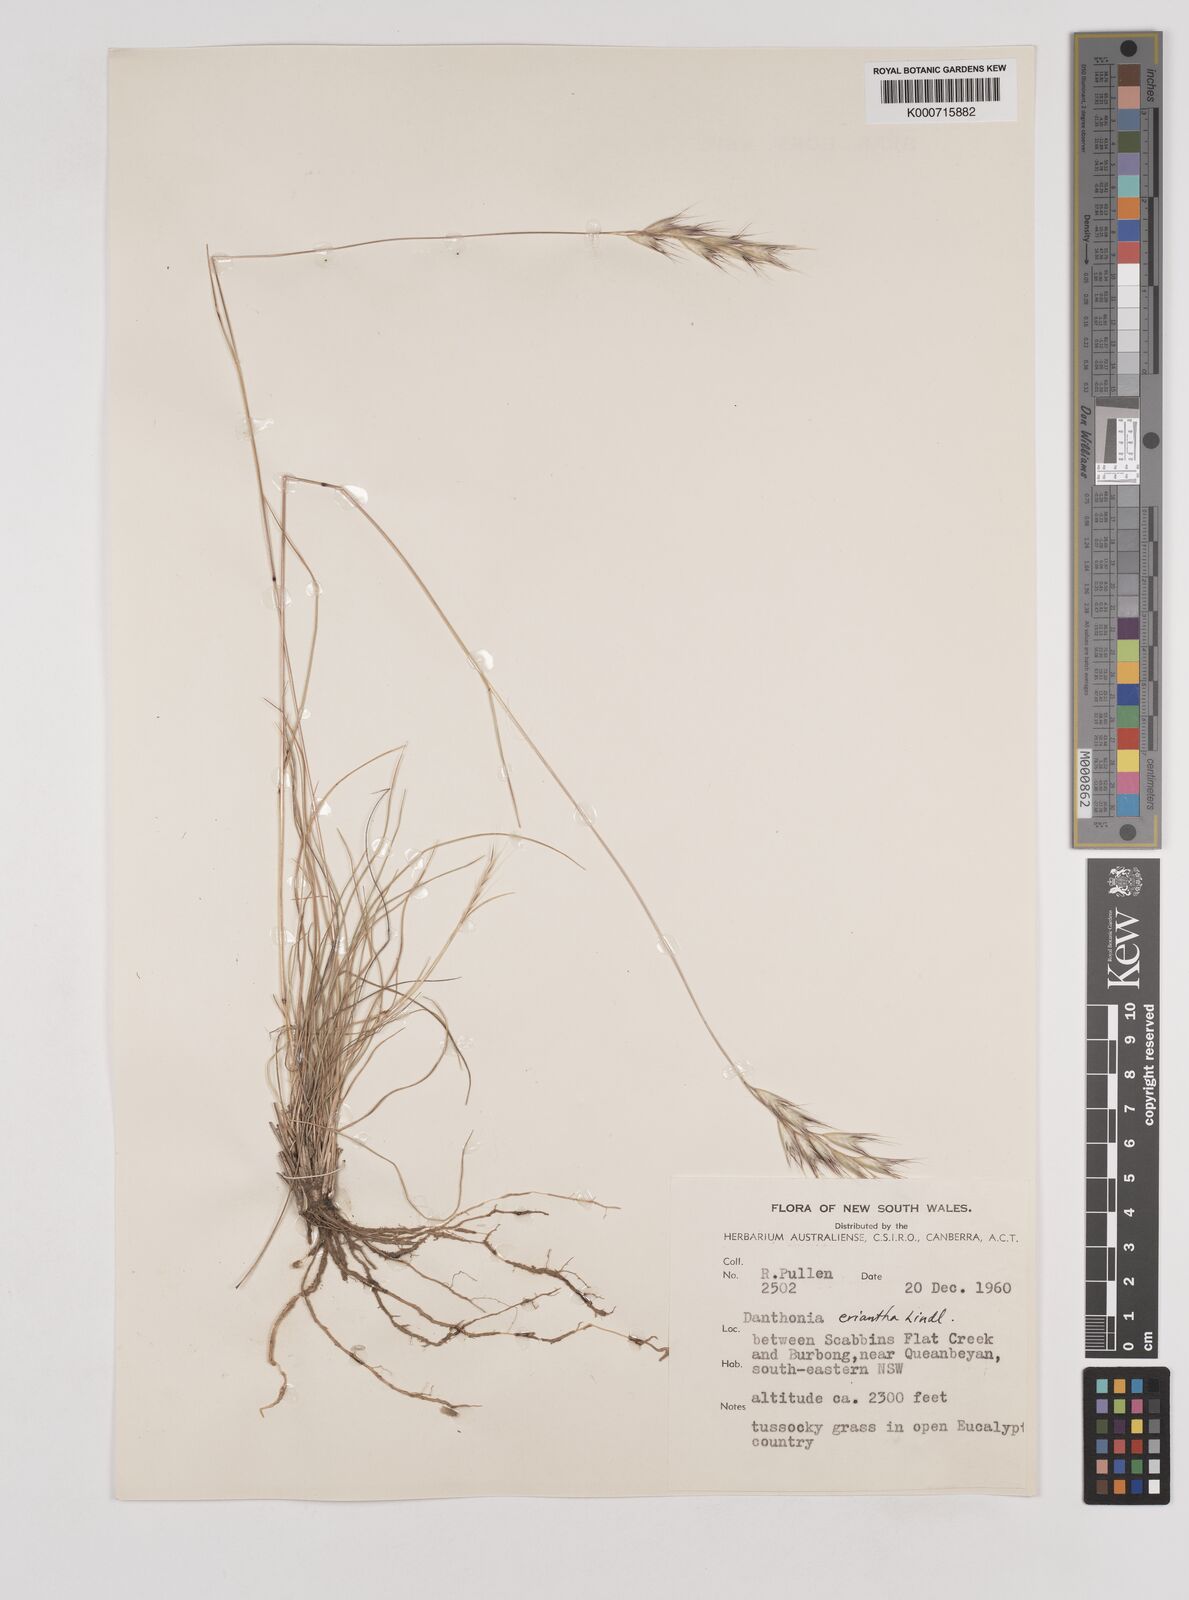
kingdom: Plantae
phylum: Tracheophyta
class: Liliopsida
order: Poales
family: Poaceae
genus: Rytidosperma
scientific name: Rytidosperma erianthum
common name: Hill wallaby grass
